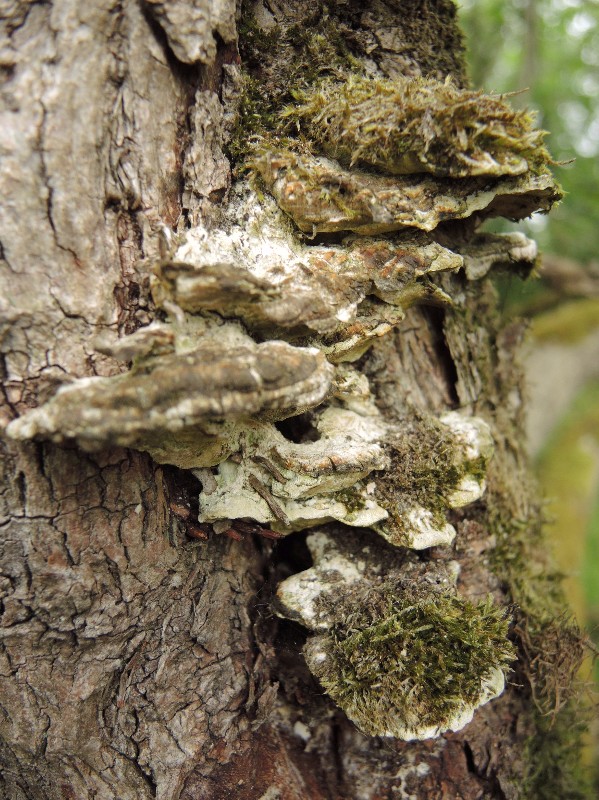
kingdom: Fungi
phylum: Basidiomycota
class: Agaricomycetes
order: Hymenochaetales
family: Oxyporaceae
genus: Oxyporus
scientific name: Oxyporus populinus
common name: sammenvokset trylleporesvamp
